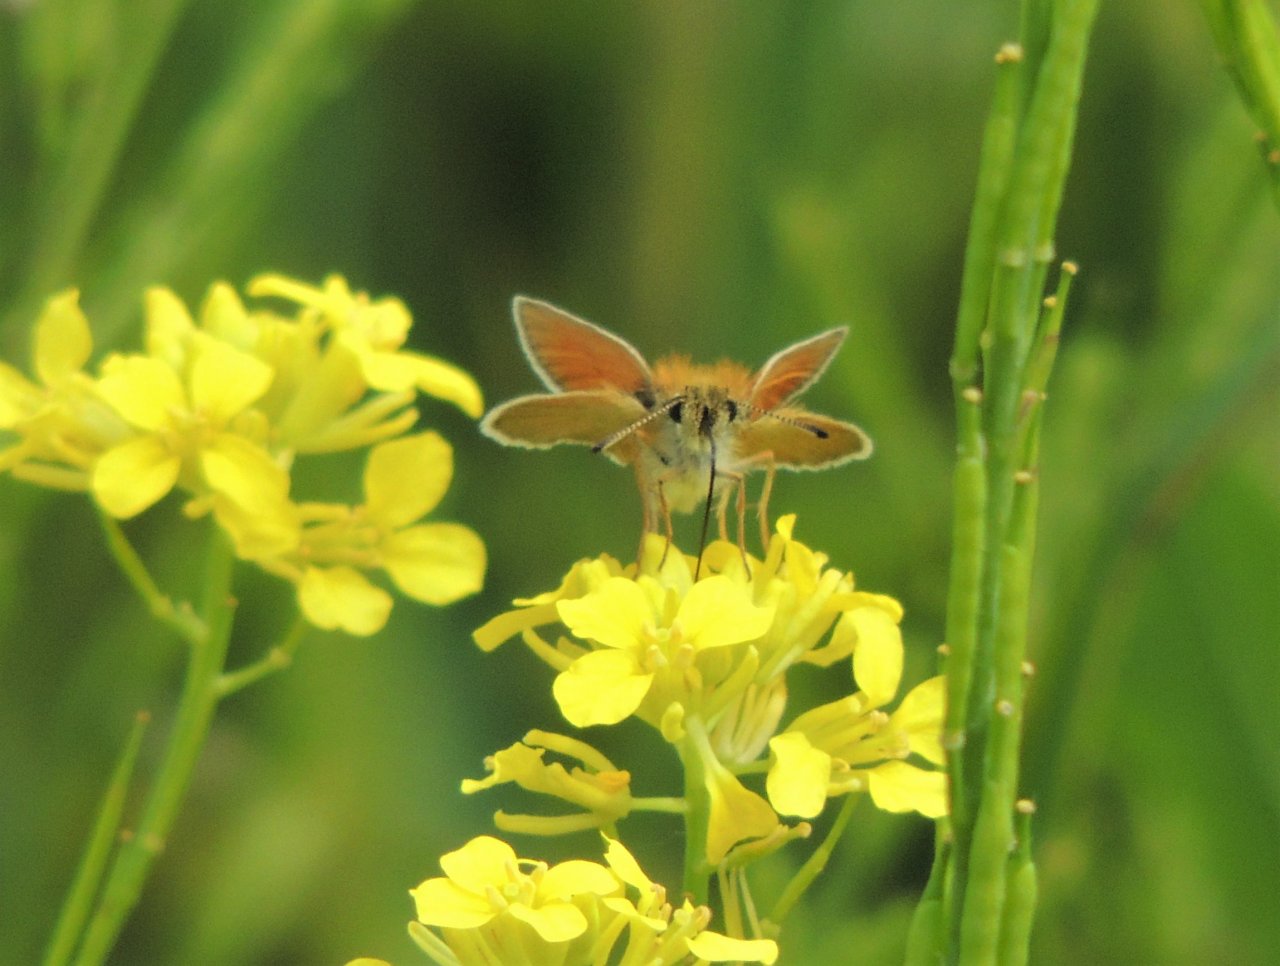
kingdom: Animalia
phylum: Arthropoda
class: Insecta
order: Lepidoptera
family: Hesperiidae
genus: Thymelicus
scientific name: Thymelicus lineola
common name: European Skipper
